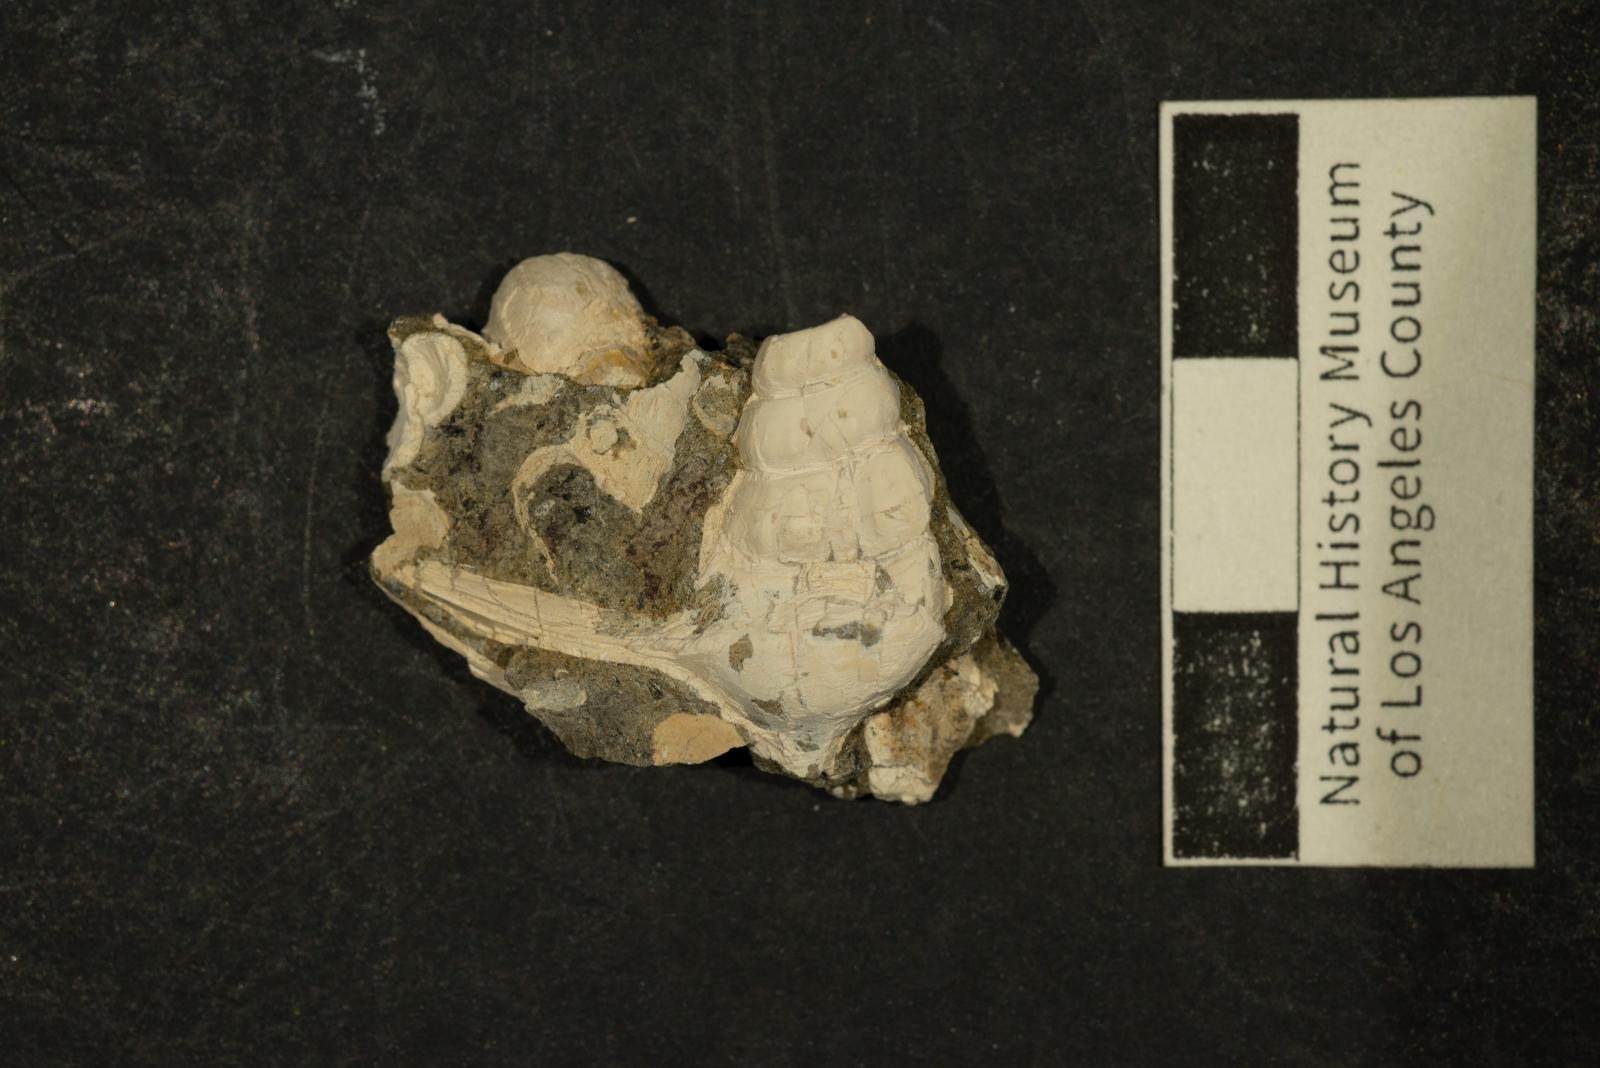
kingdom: Animalia
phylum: Mollusca
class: Gastropoda
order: Littorinimorpha
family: Aporrhaidae
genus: Anchura
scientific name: Anchura
